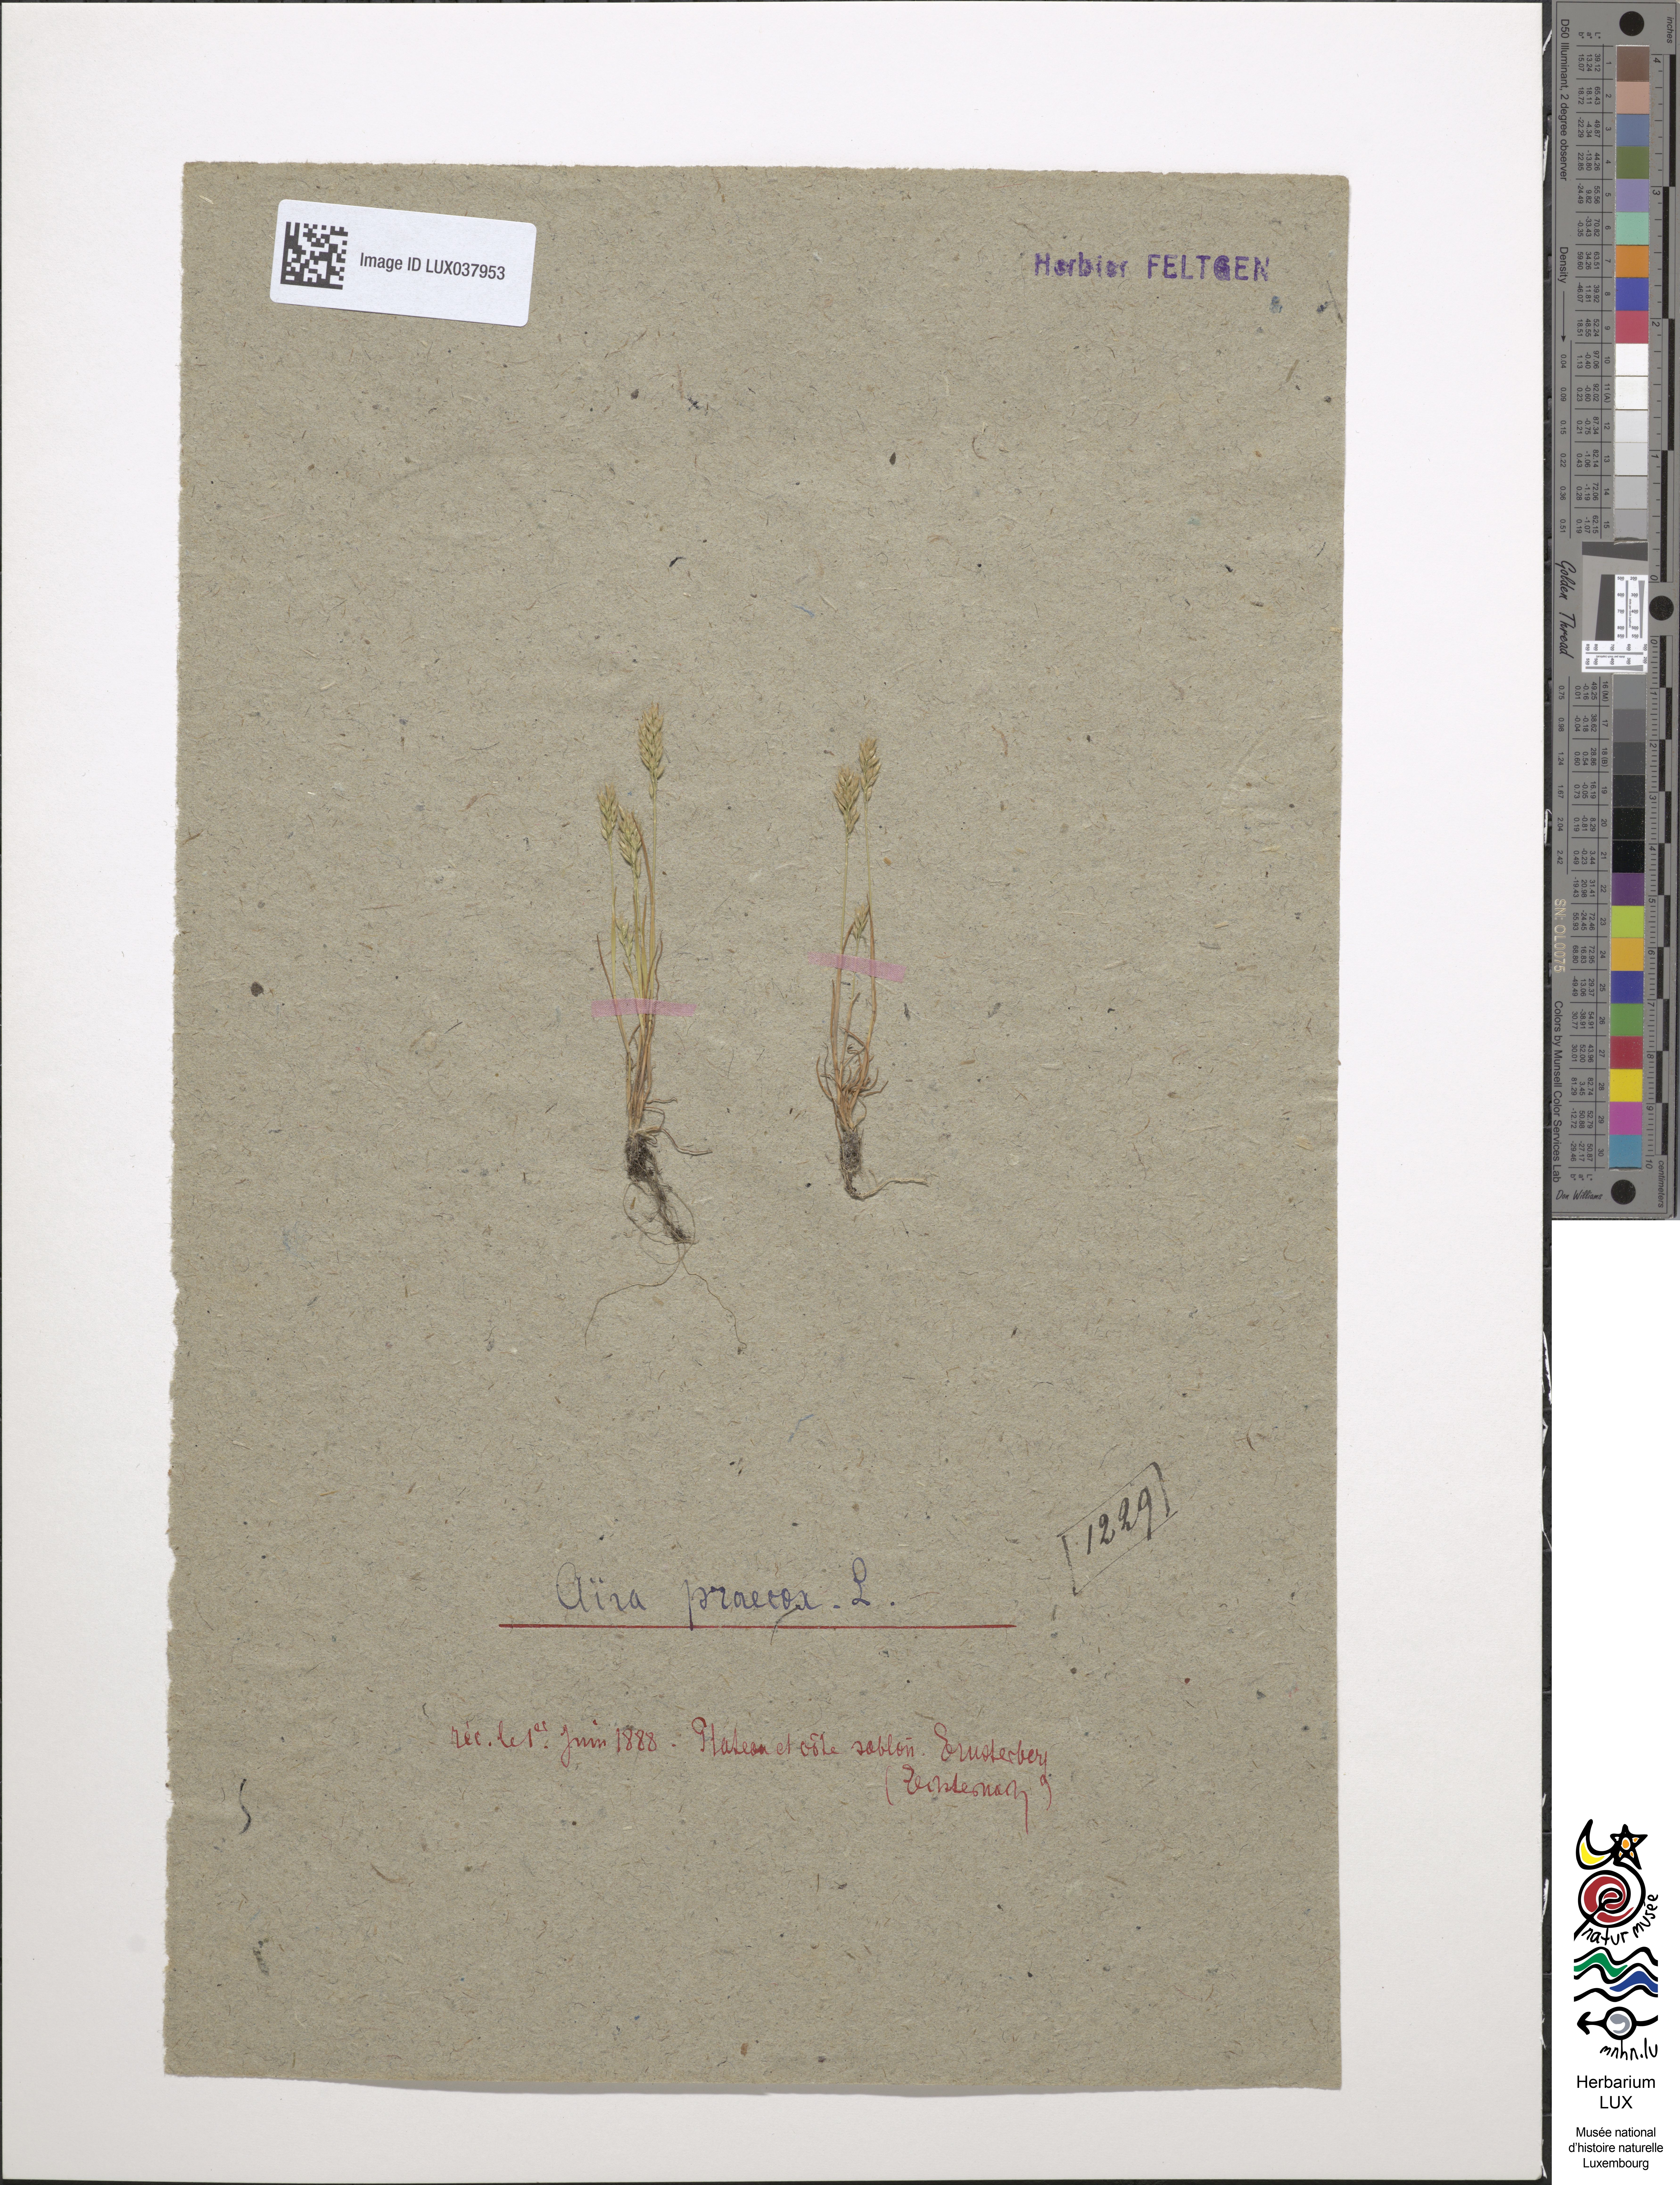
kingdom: Plantae
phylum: Tracheophyta
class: Liliopsida
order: Poales
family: Poaceae
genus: Aira
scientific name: Aira praecox
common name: Early hair-grass
